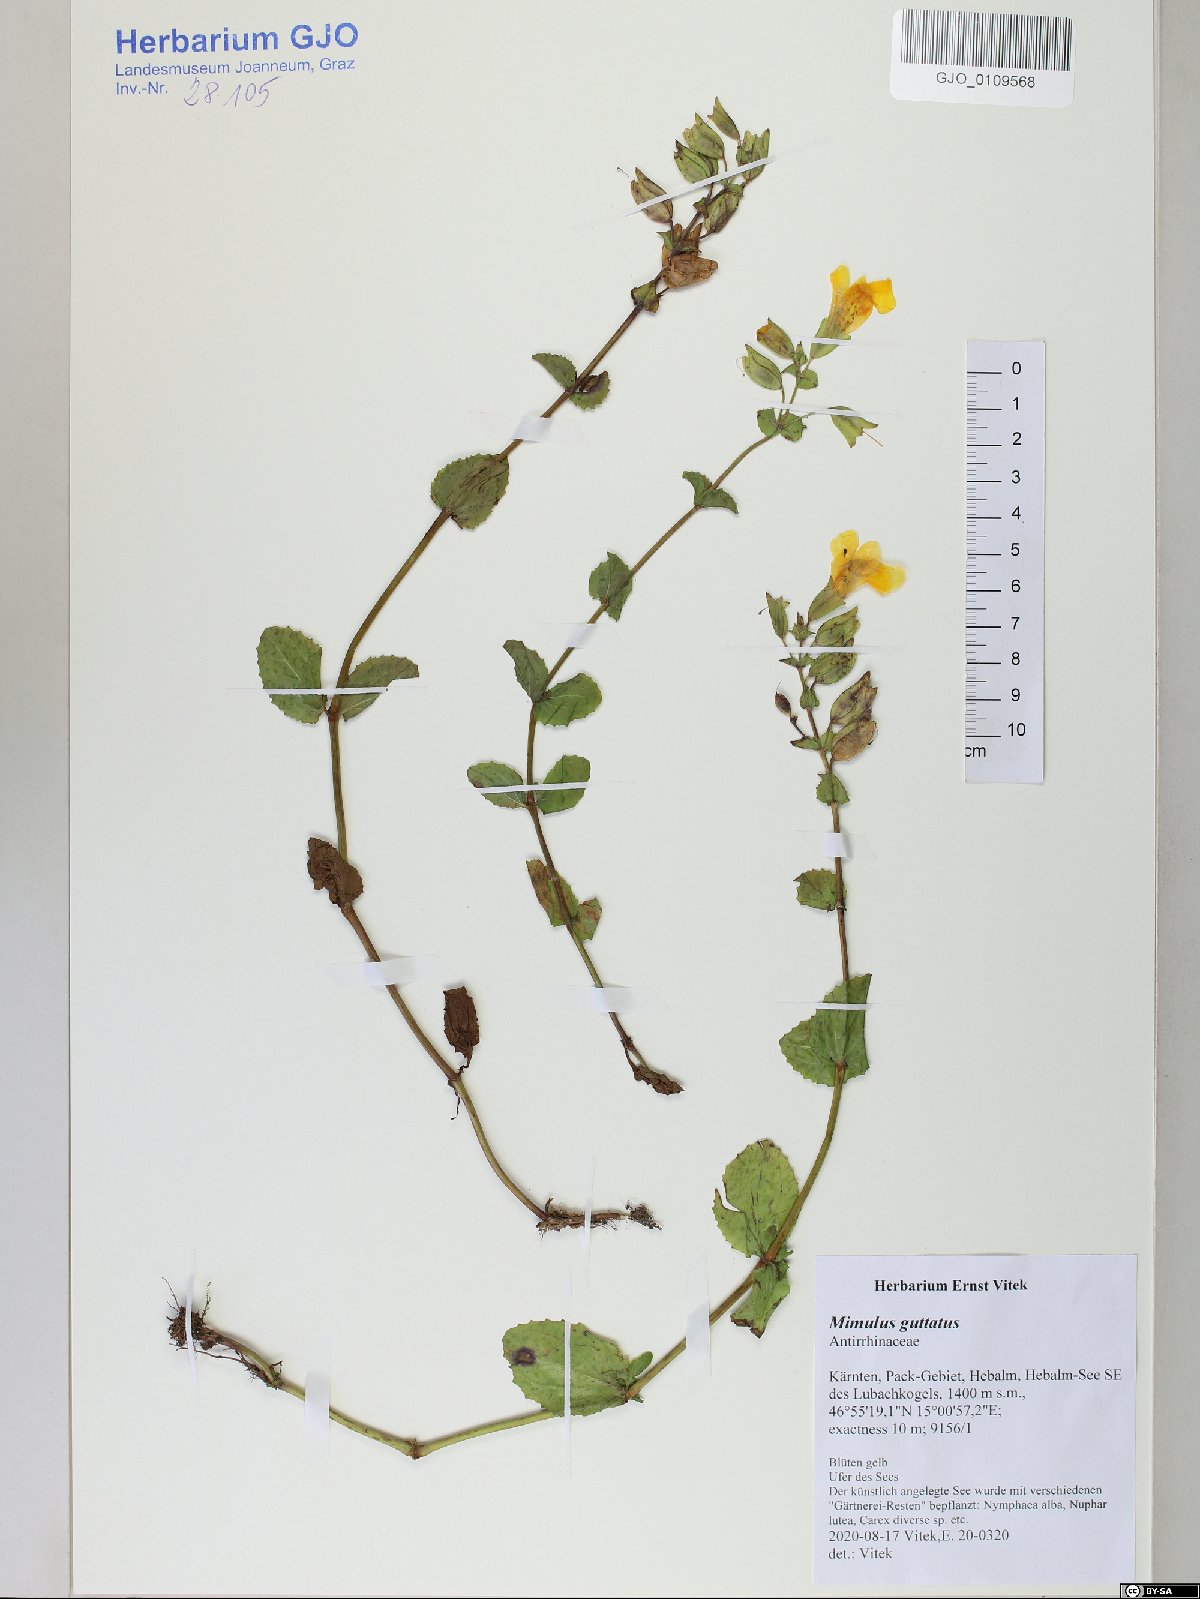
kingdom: Plantae
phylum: Tracheophyta
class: Magnoliopsida
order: Lamiales
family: Phrymaceae
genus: Erythranthe
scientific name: Erythranthe guttata
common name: Monkeyflower
